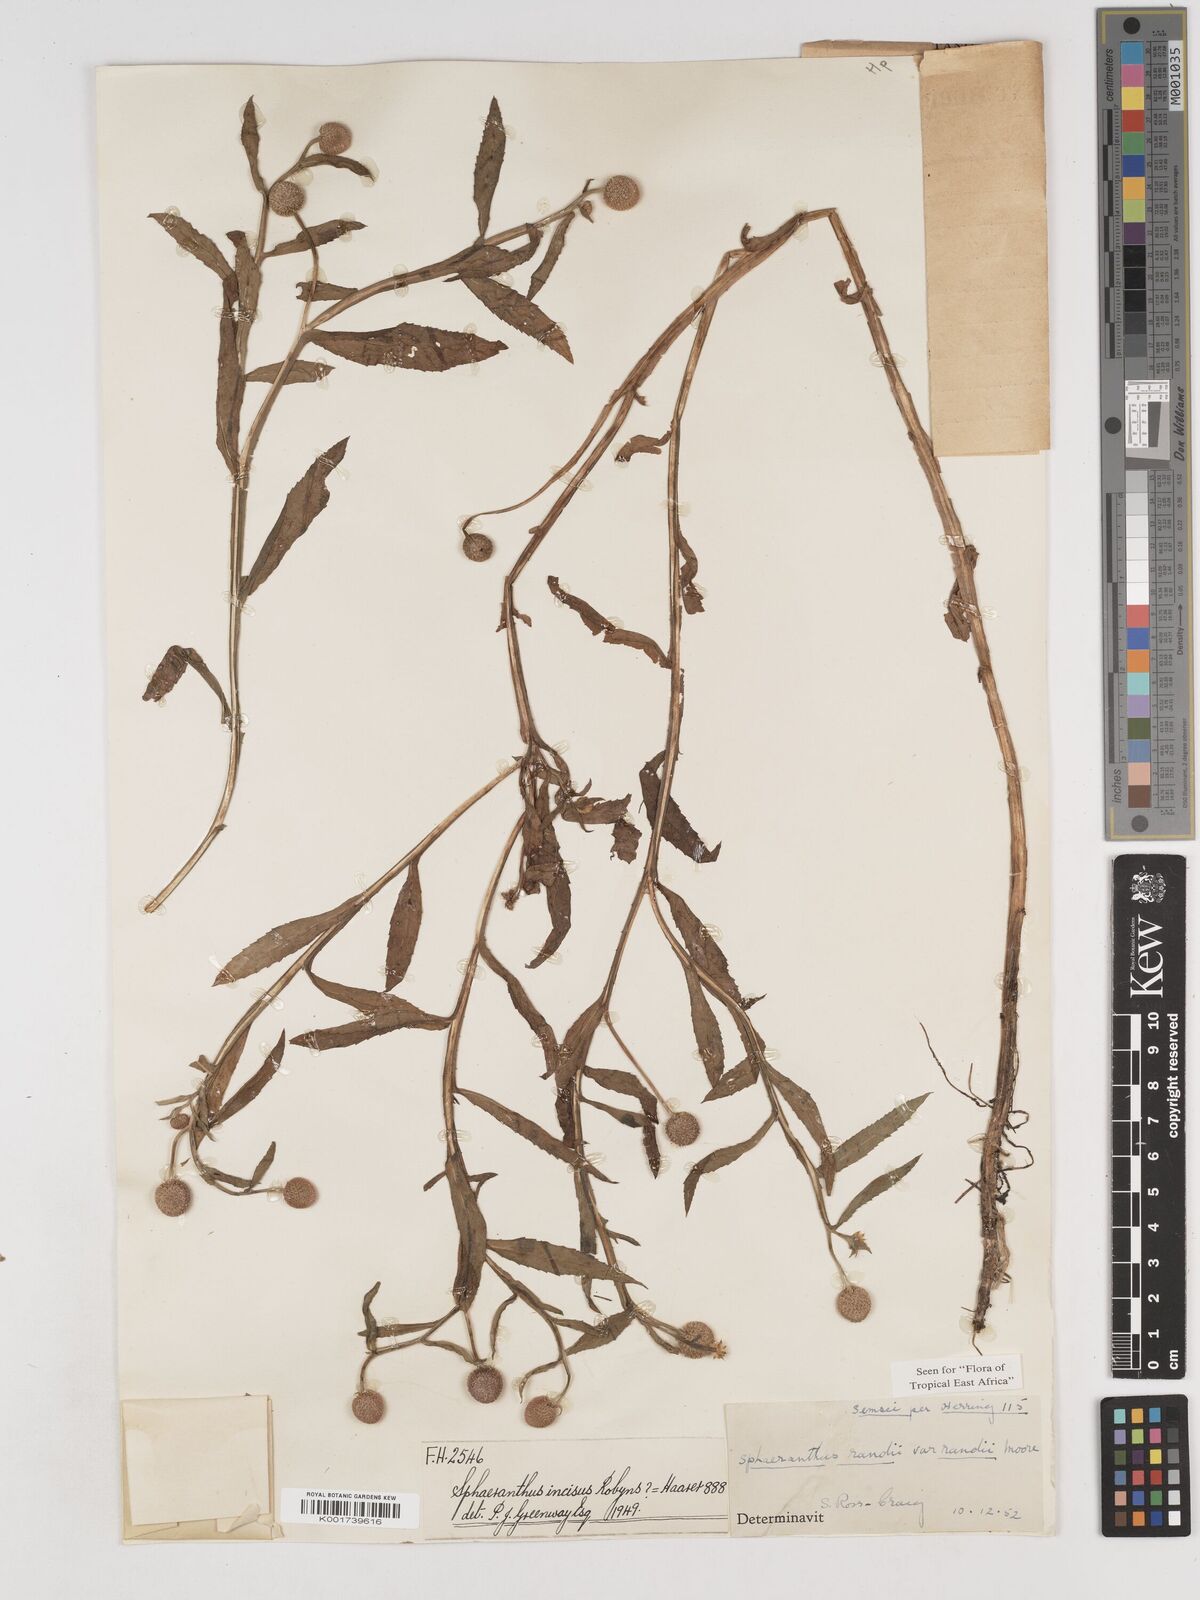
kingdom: Plantae
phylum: Tracheophyta
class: Magnoliopsida
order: Asterales
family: Asteraceae
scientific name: Asteraceae
